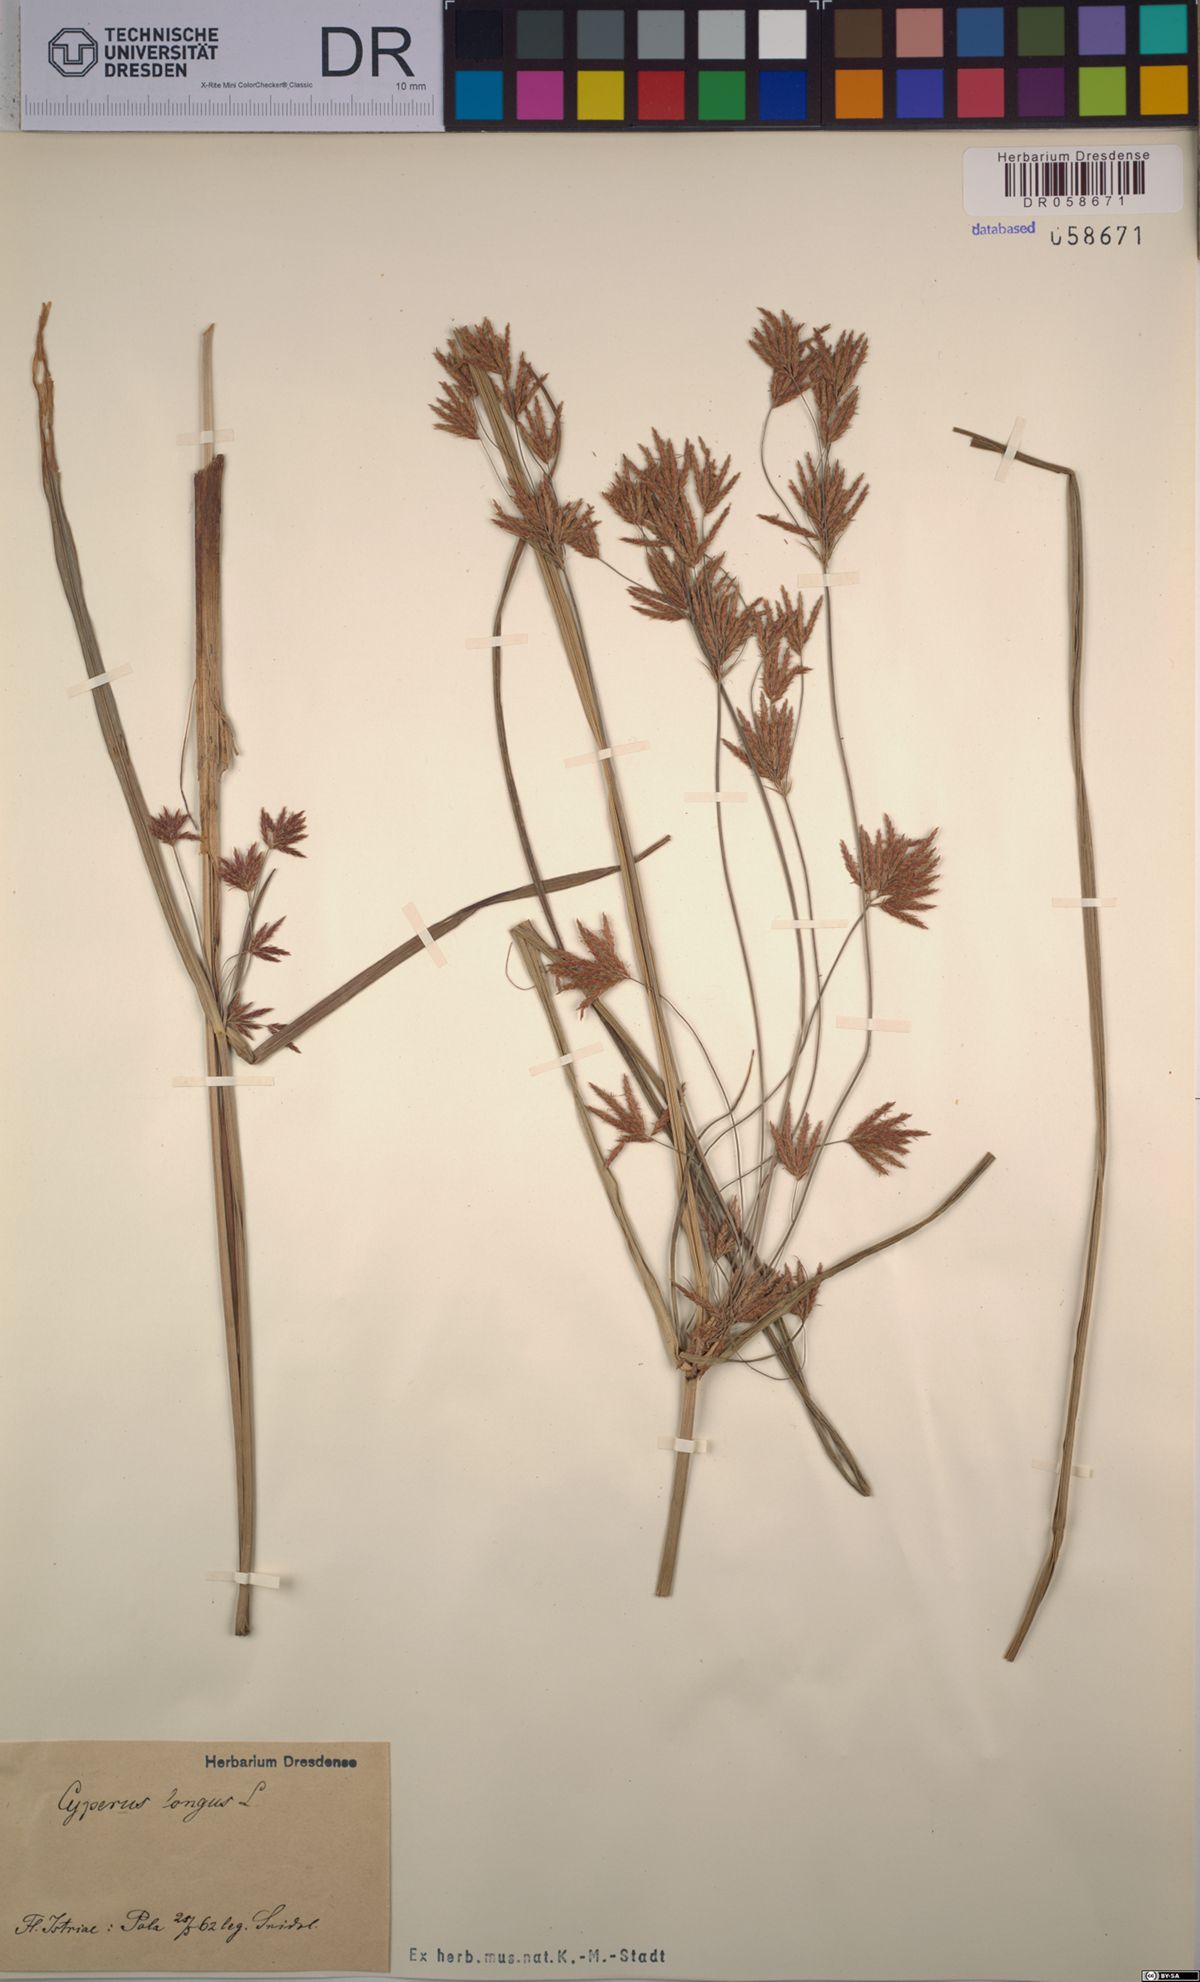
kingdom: Plantae
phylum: Tracheophyta
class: Liliopsida
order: Poales
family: Cyperaceae
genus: Cyperus
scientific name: Cyperus longus
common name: Galingale
